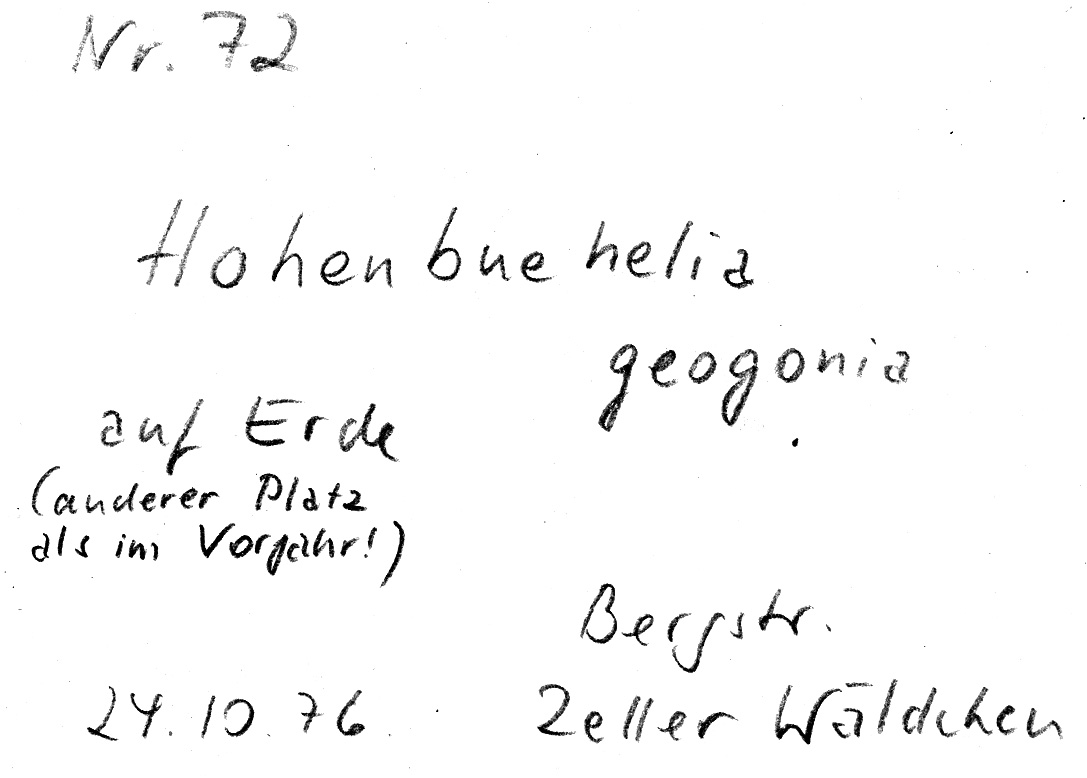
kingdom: Fungi
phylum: Basidiomycota
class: Agaricomycetes
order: Agaricales
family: Pleurotaceae
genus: Hohenbuehelia
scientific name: Hohenbuehelia tremula
